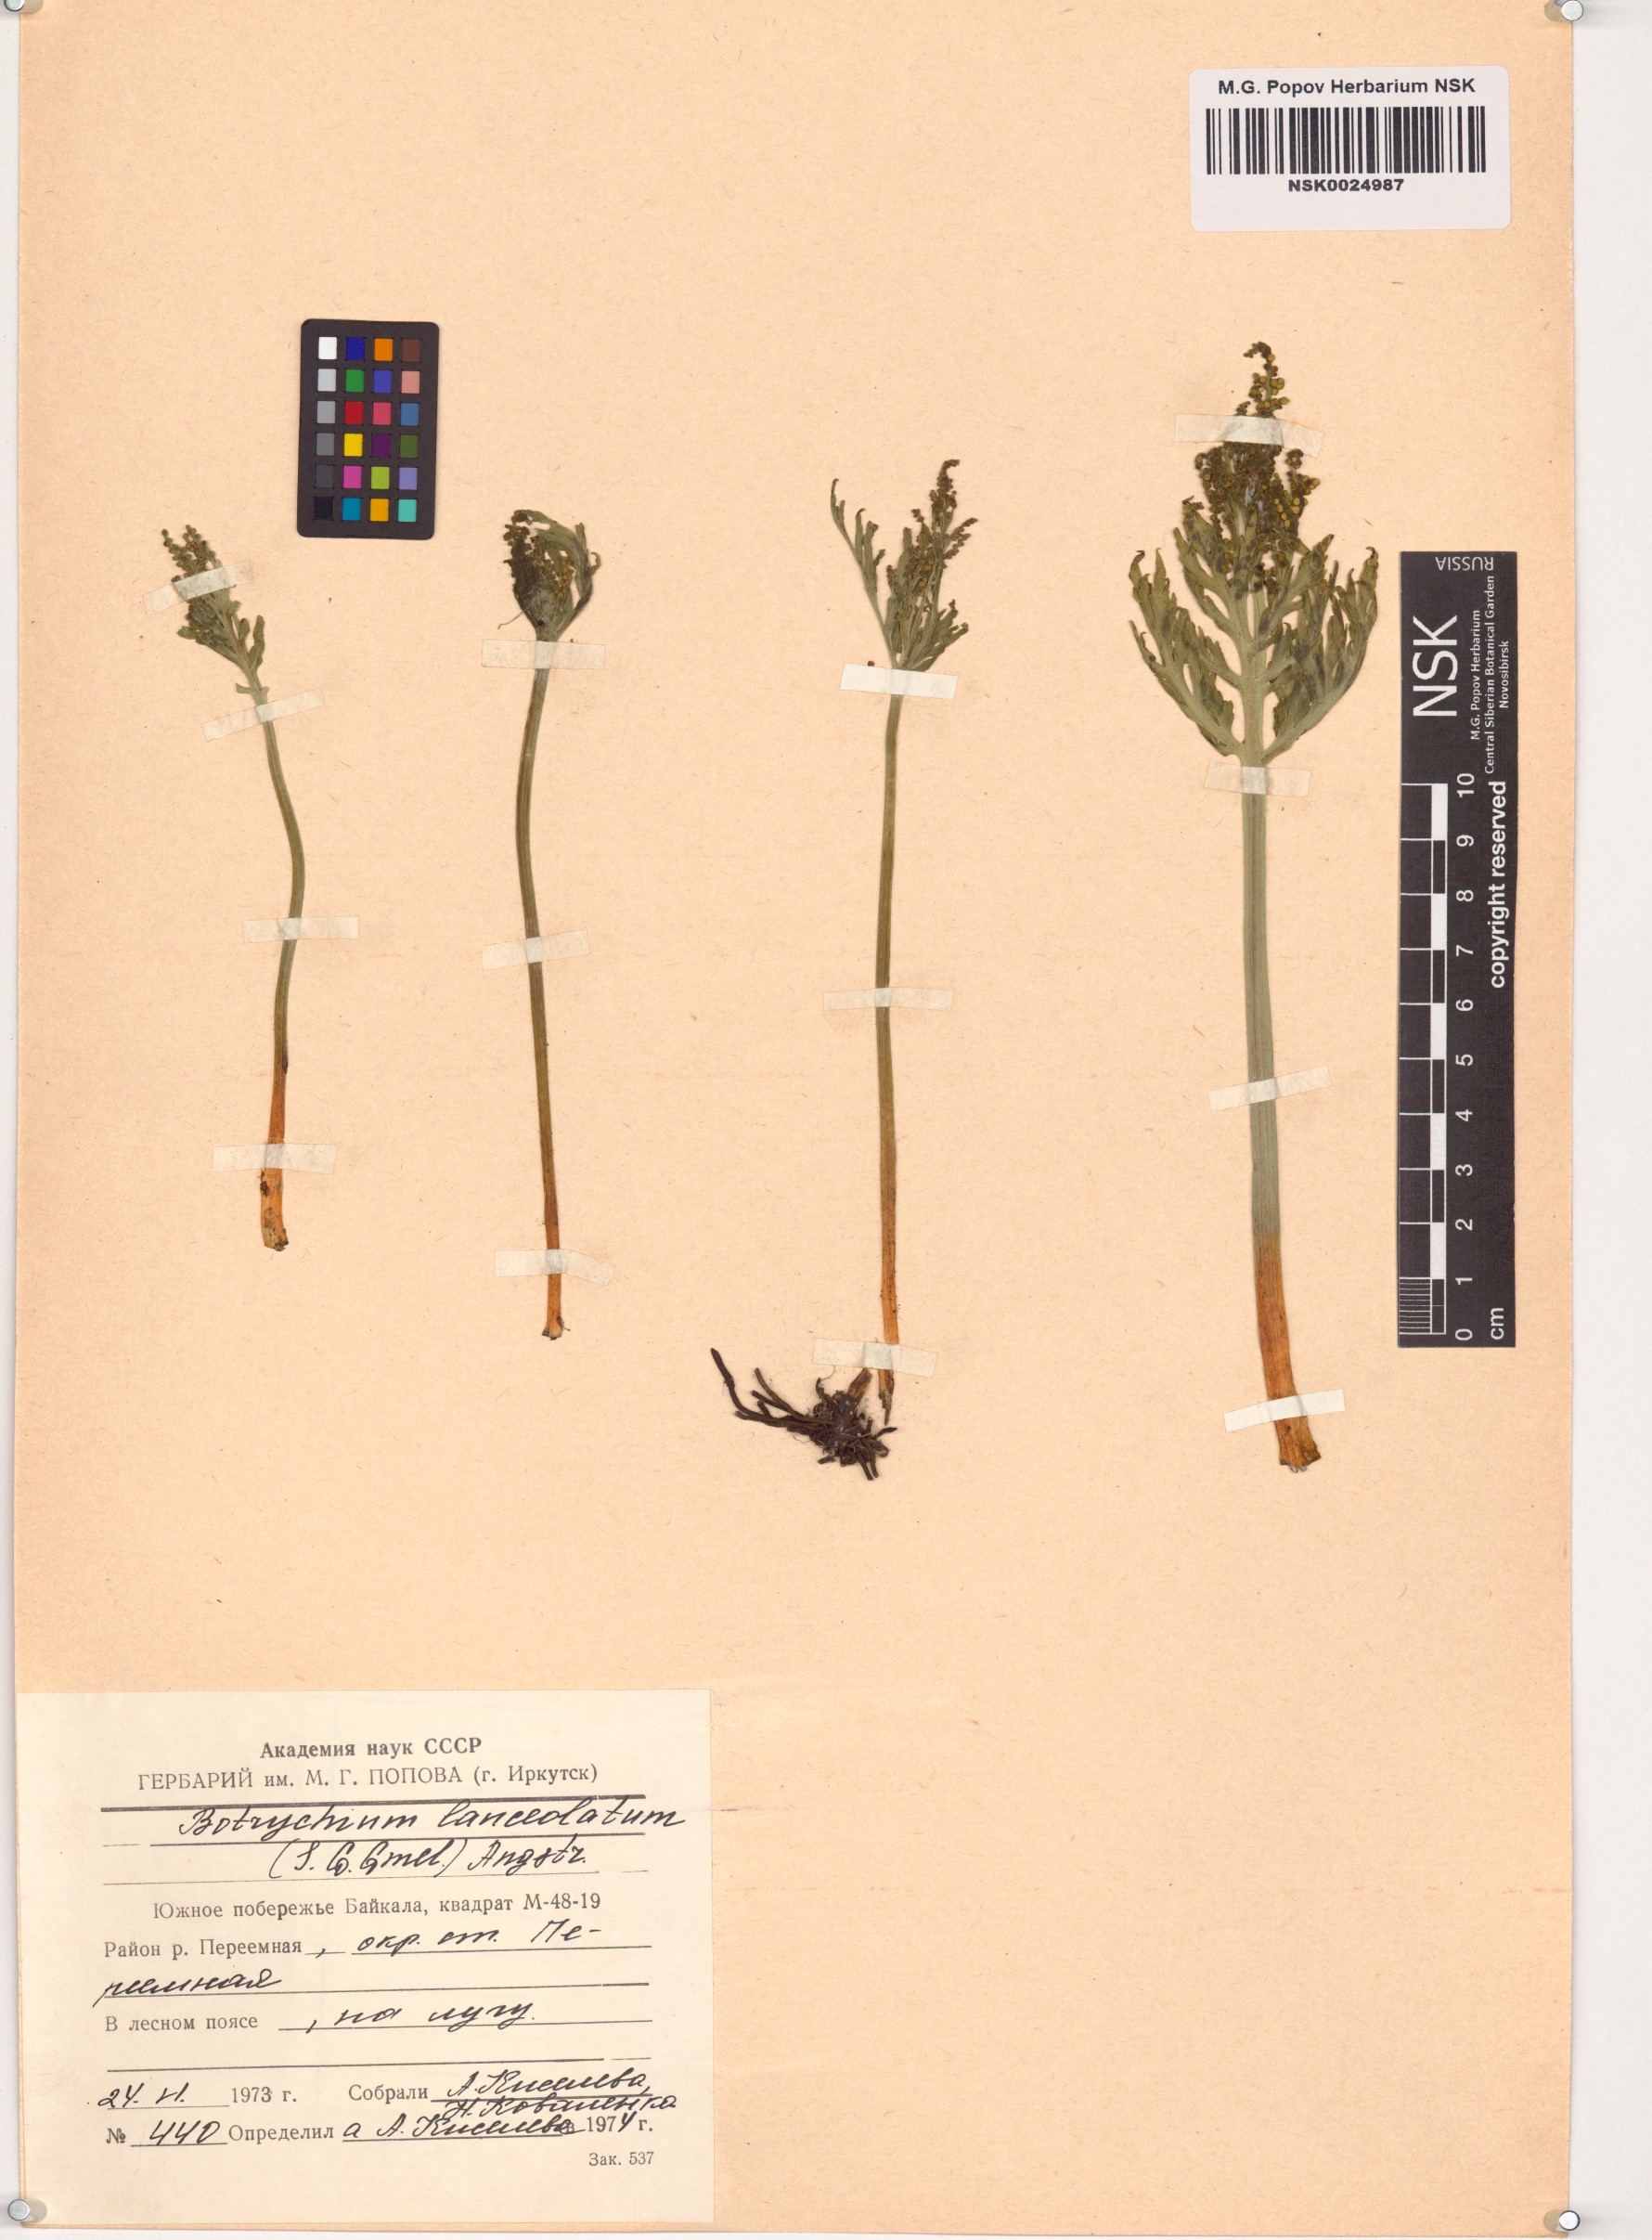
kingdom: Plantae
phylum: Tracheophyta
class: Polypodiopsida
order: Ophioglossales
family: Ophioglossaceae
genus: Botrychium
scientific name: Botrychium lanceolatum
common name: Lance-leaved moonwort
